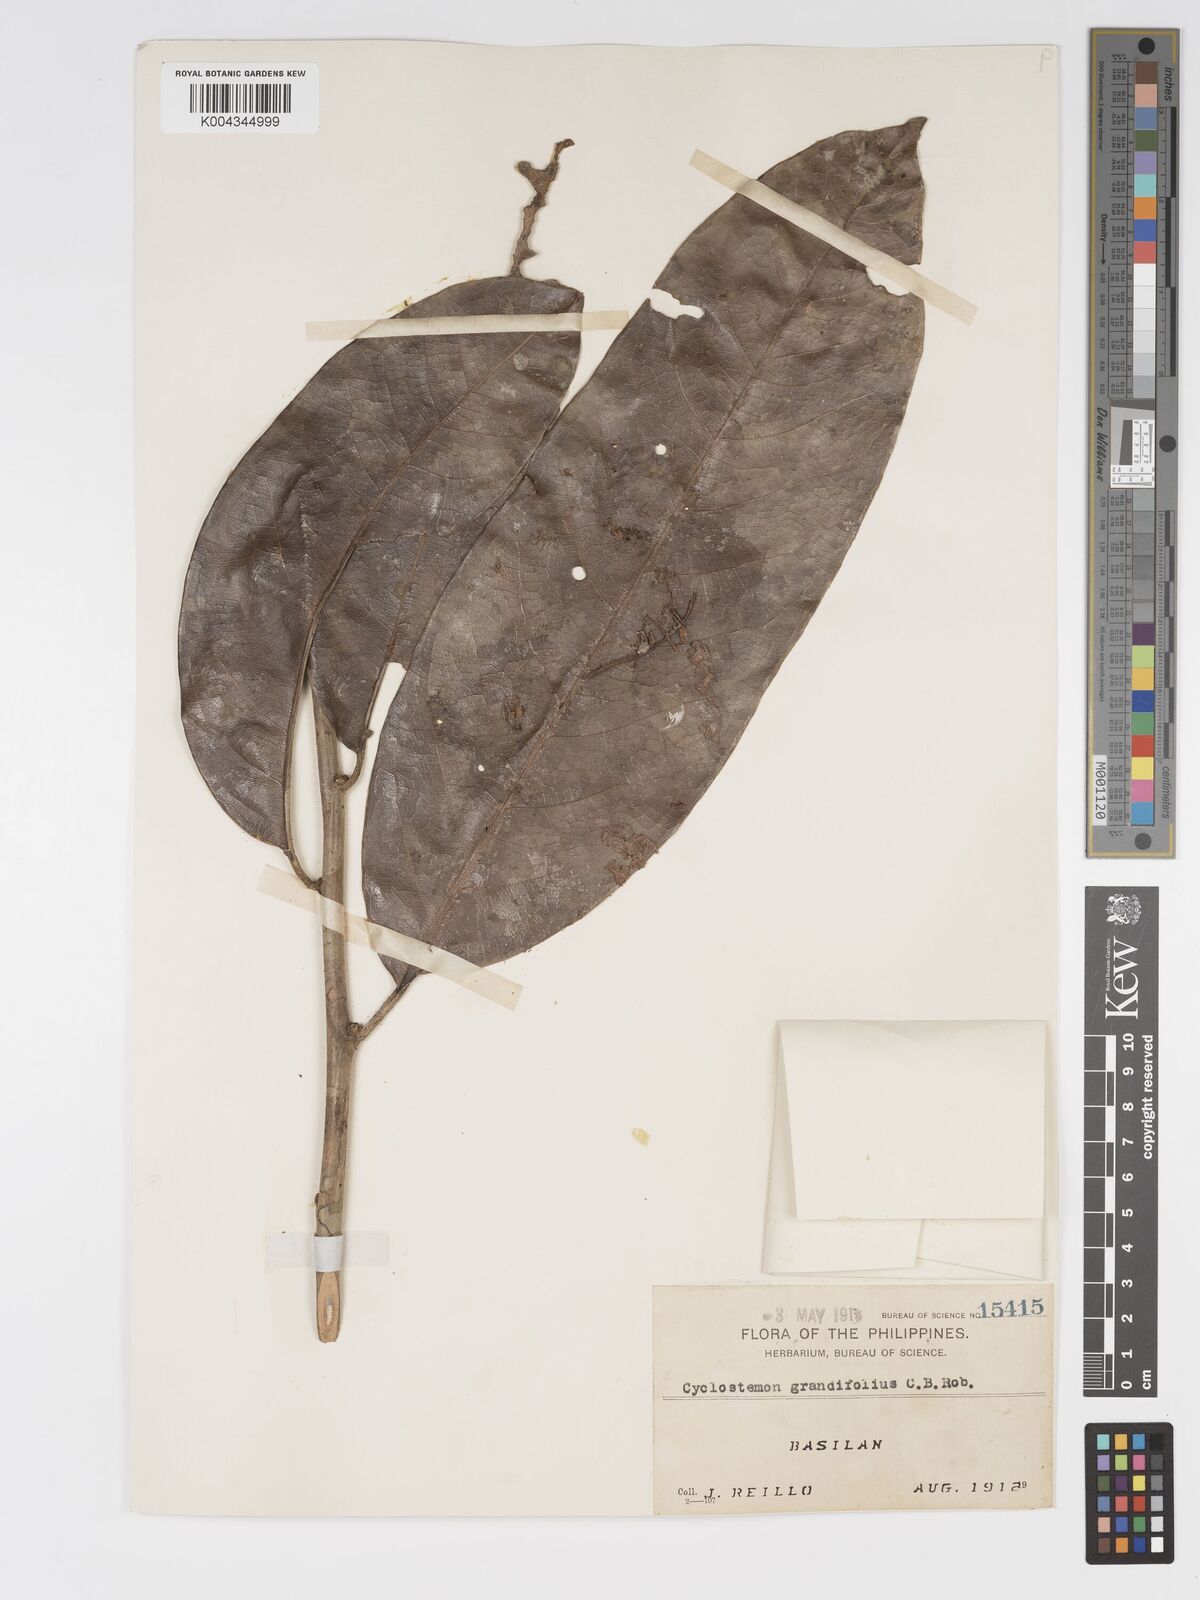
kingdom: Plantae
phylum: Tracheophyta
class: Magnoliopsida
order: Malpighiales
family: Putranjivaceae
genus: Drypetes
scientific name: Drypetes grandifolia
